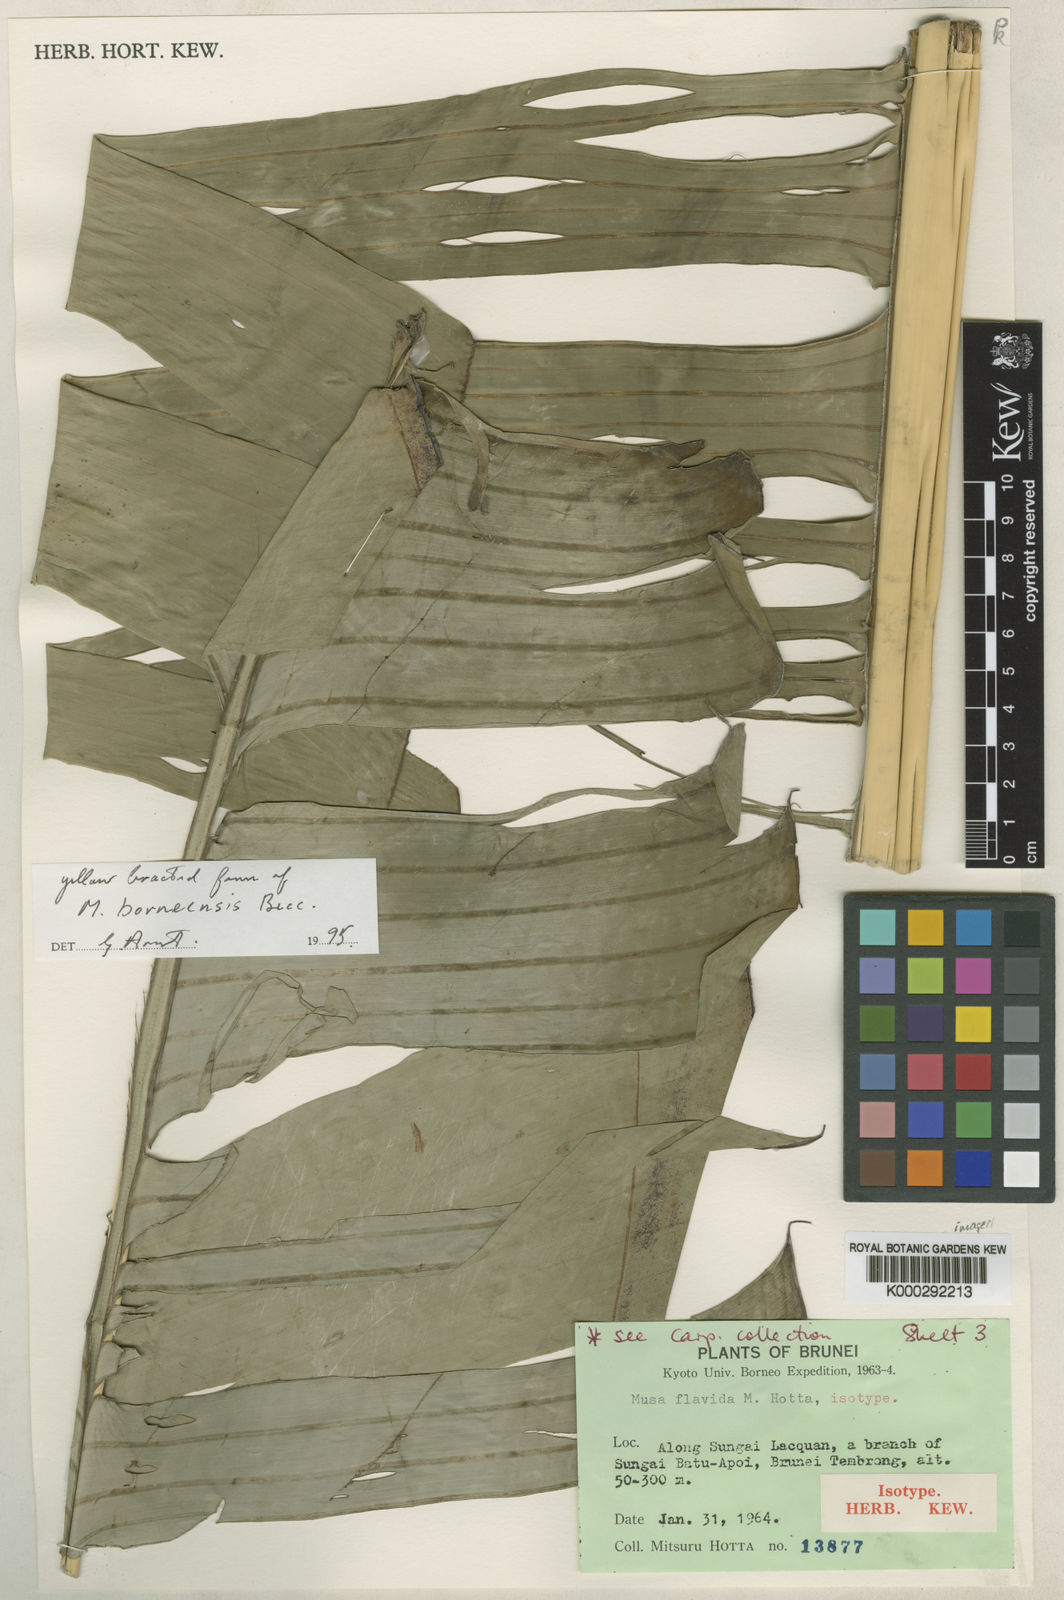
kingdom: Plantae
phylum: Tracheophyta
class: Liliopsida
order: Zingiberales
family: Musaceae
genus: Musa
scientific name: Musa borneensis
